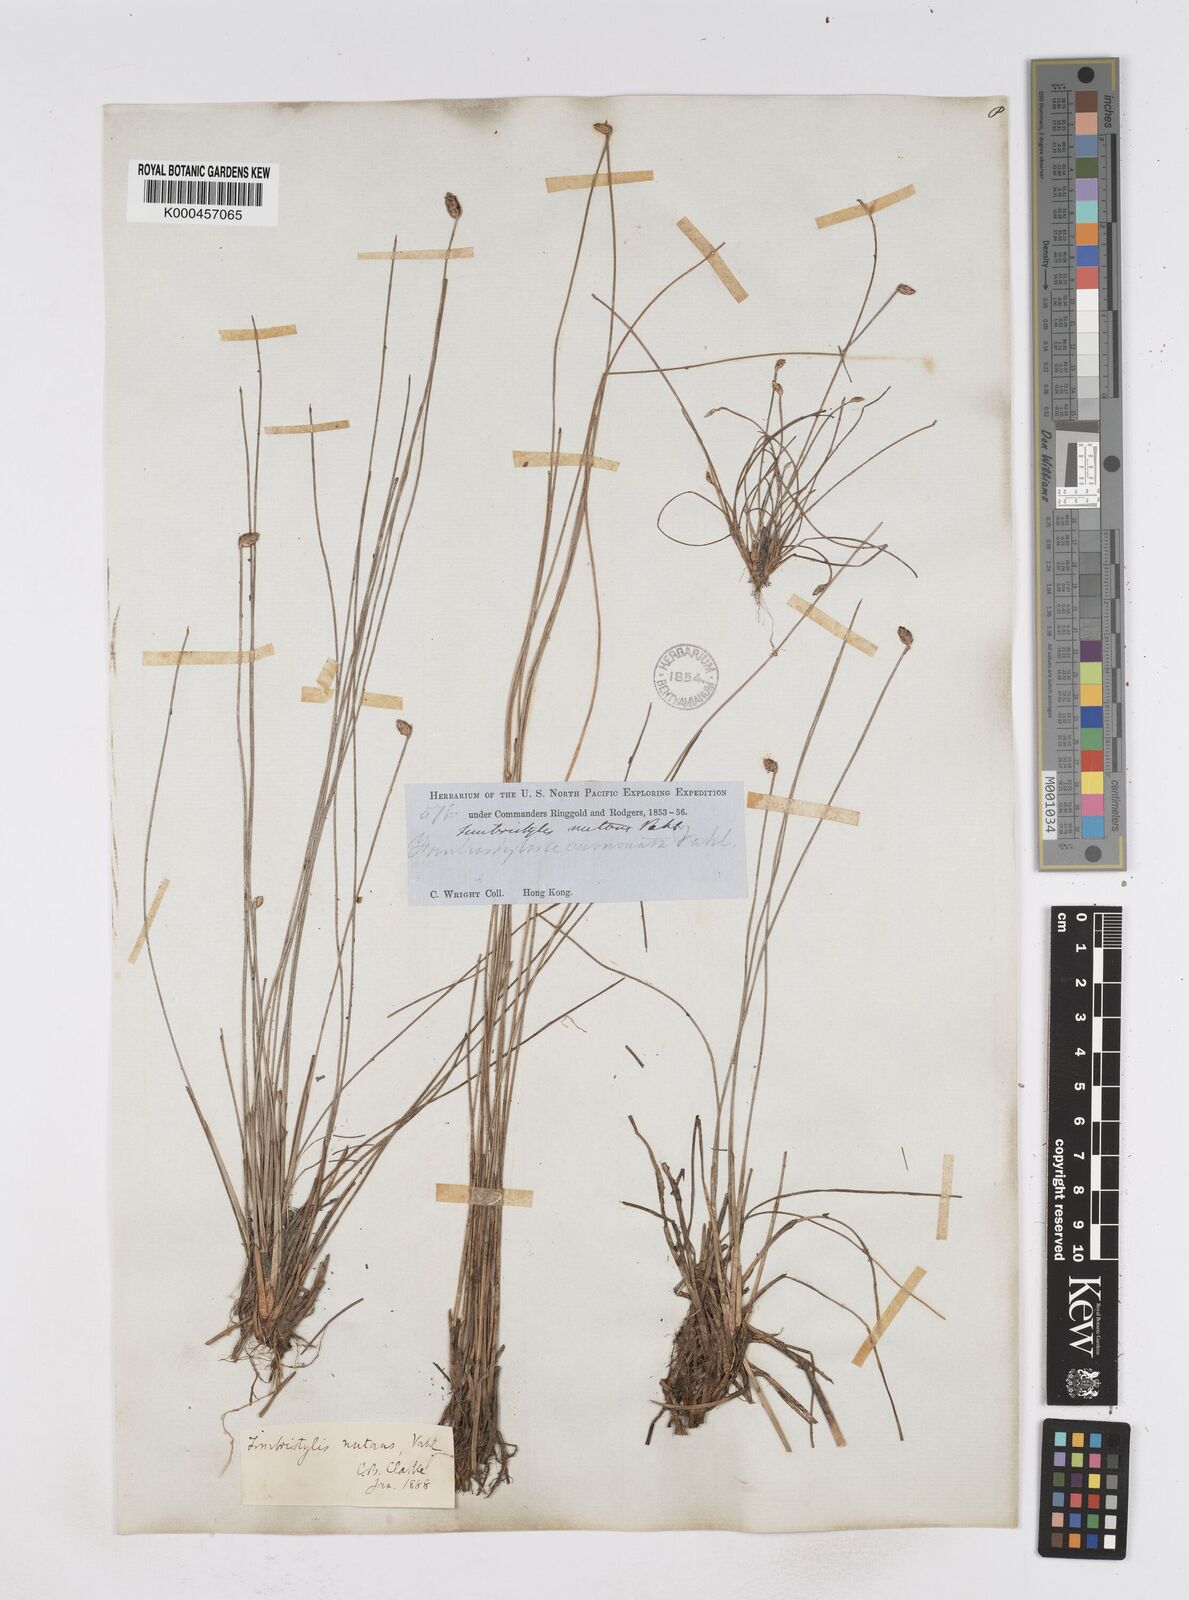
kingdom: Plantae
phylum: Tracheophyta
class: Liliopsida
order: Poales
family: Cyperaceae
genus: Fimbristylis
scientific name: Fimbristylis nutans
